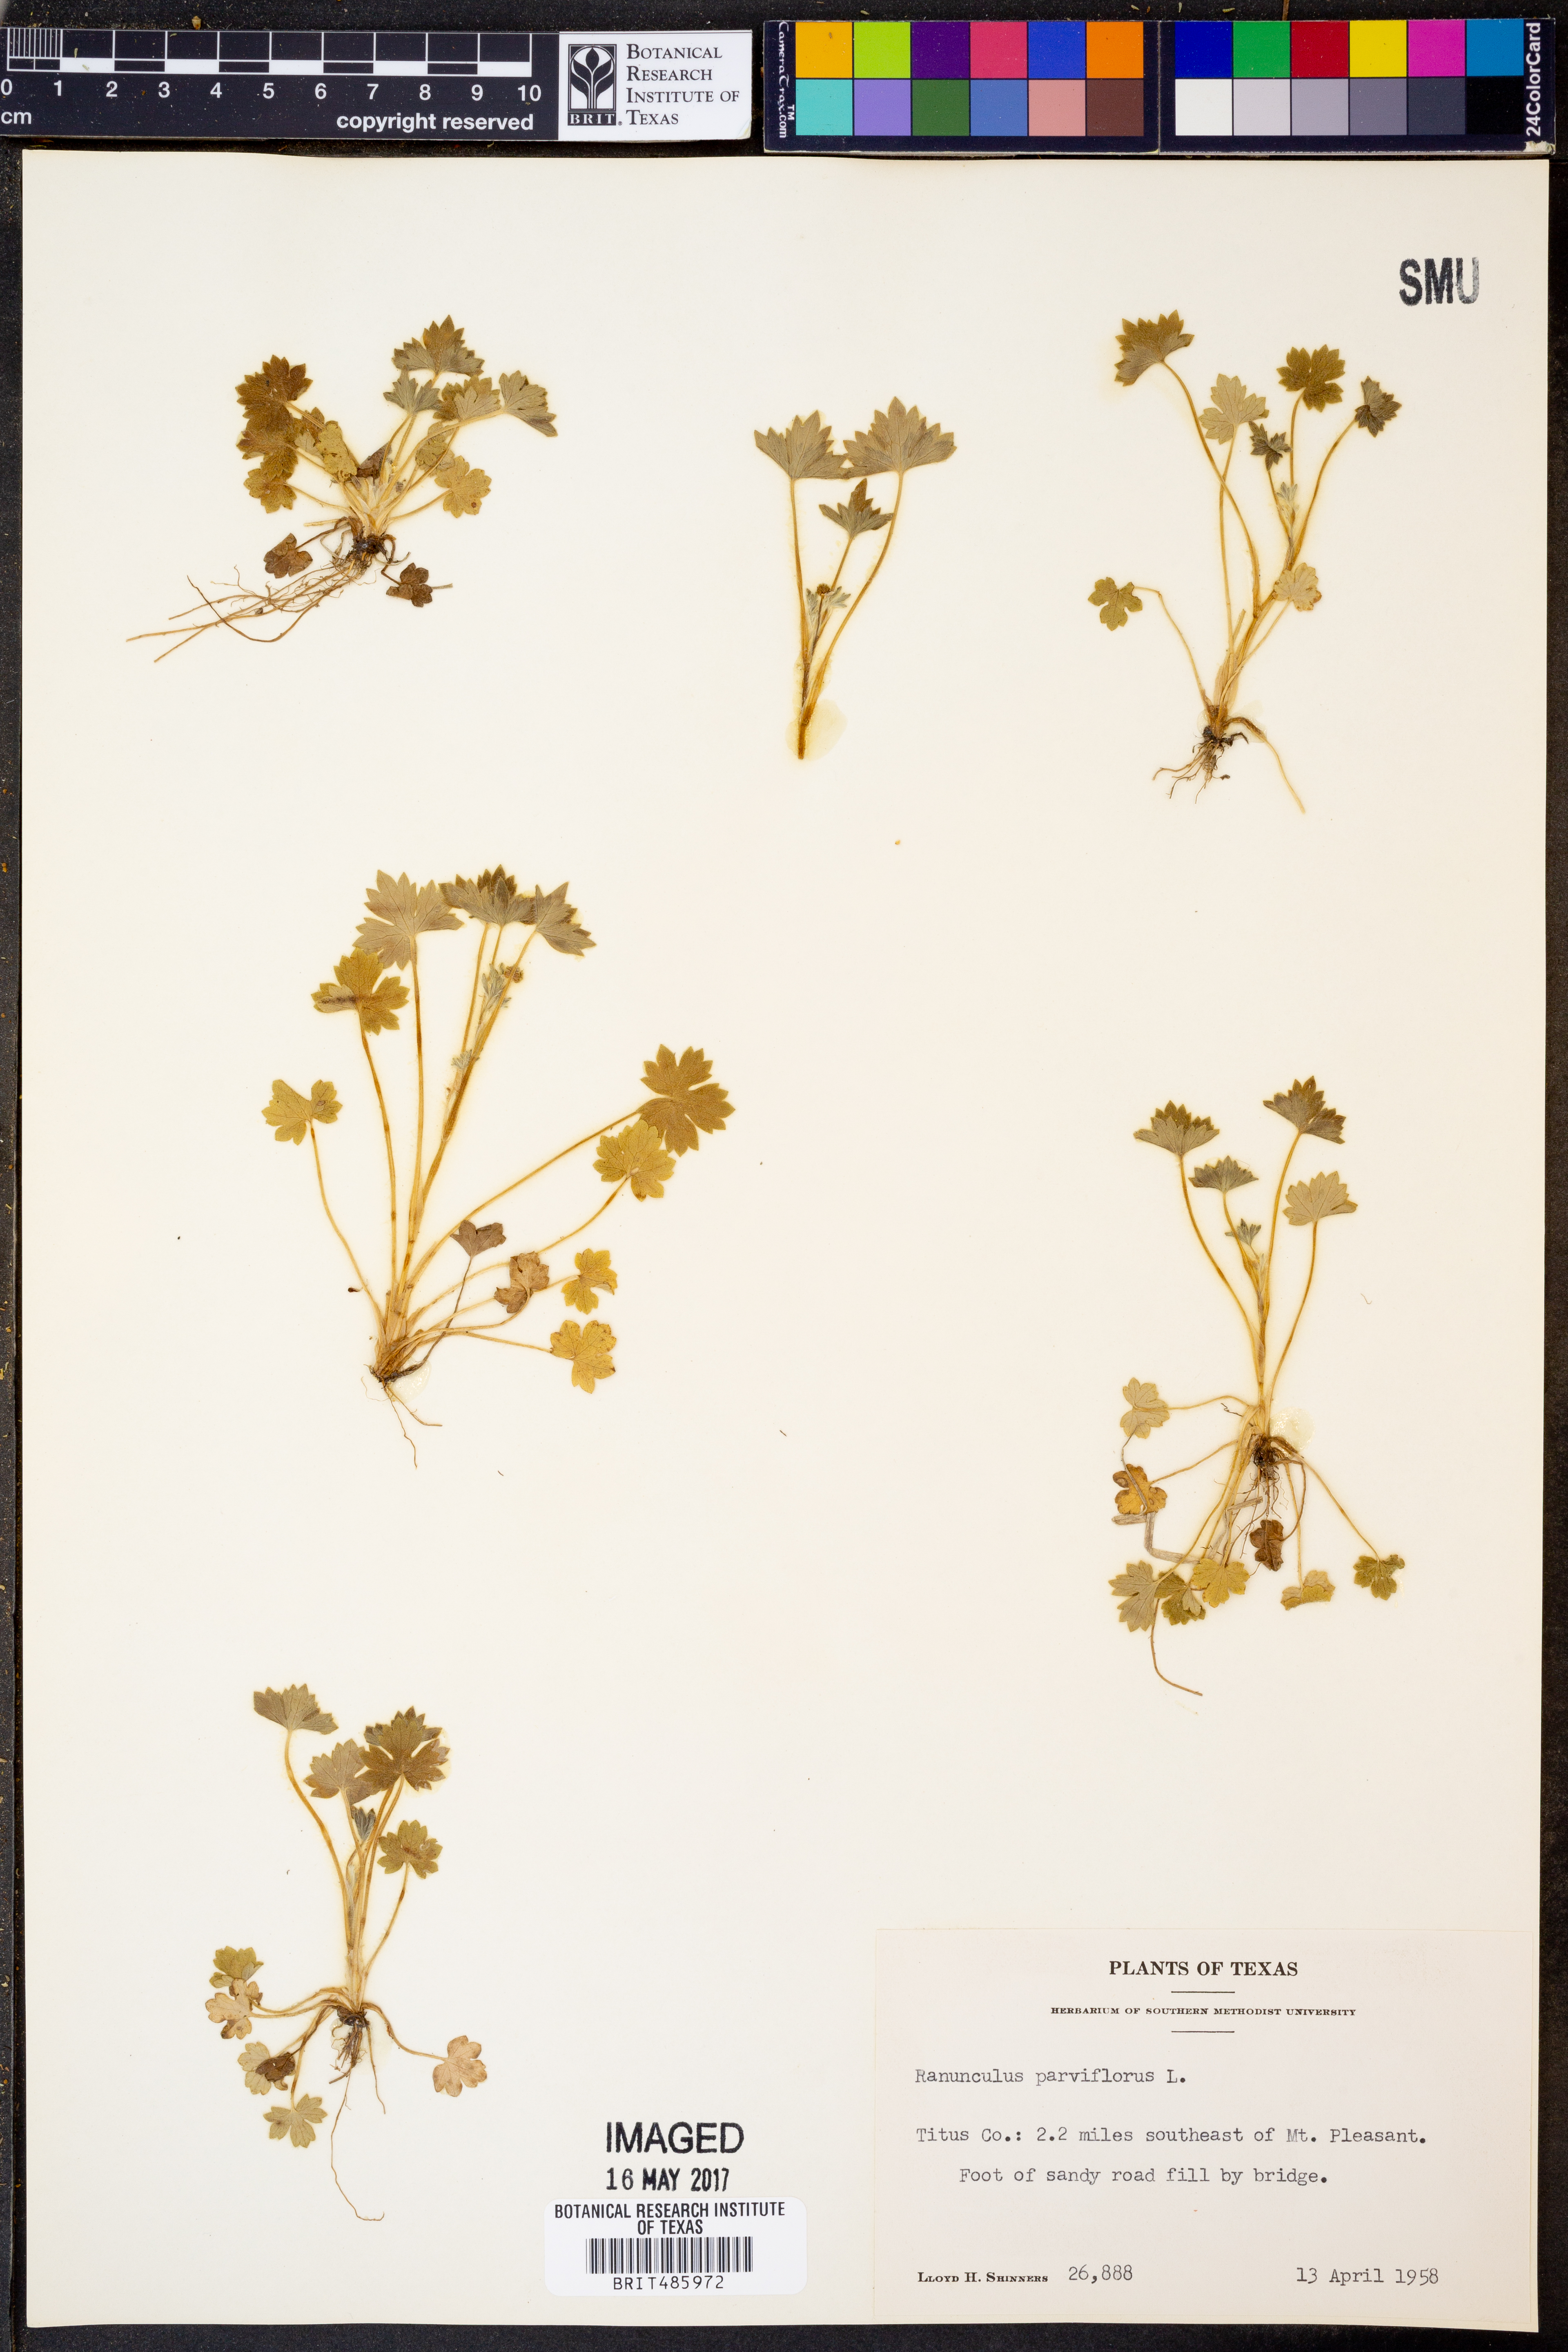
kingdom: Plantae
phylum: Tracheophyta
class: Magnoliopsida
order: Ranunculales
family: Ranunculaceae
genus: Ranunculus
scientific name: Ranunculus parviflorus
